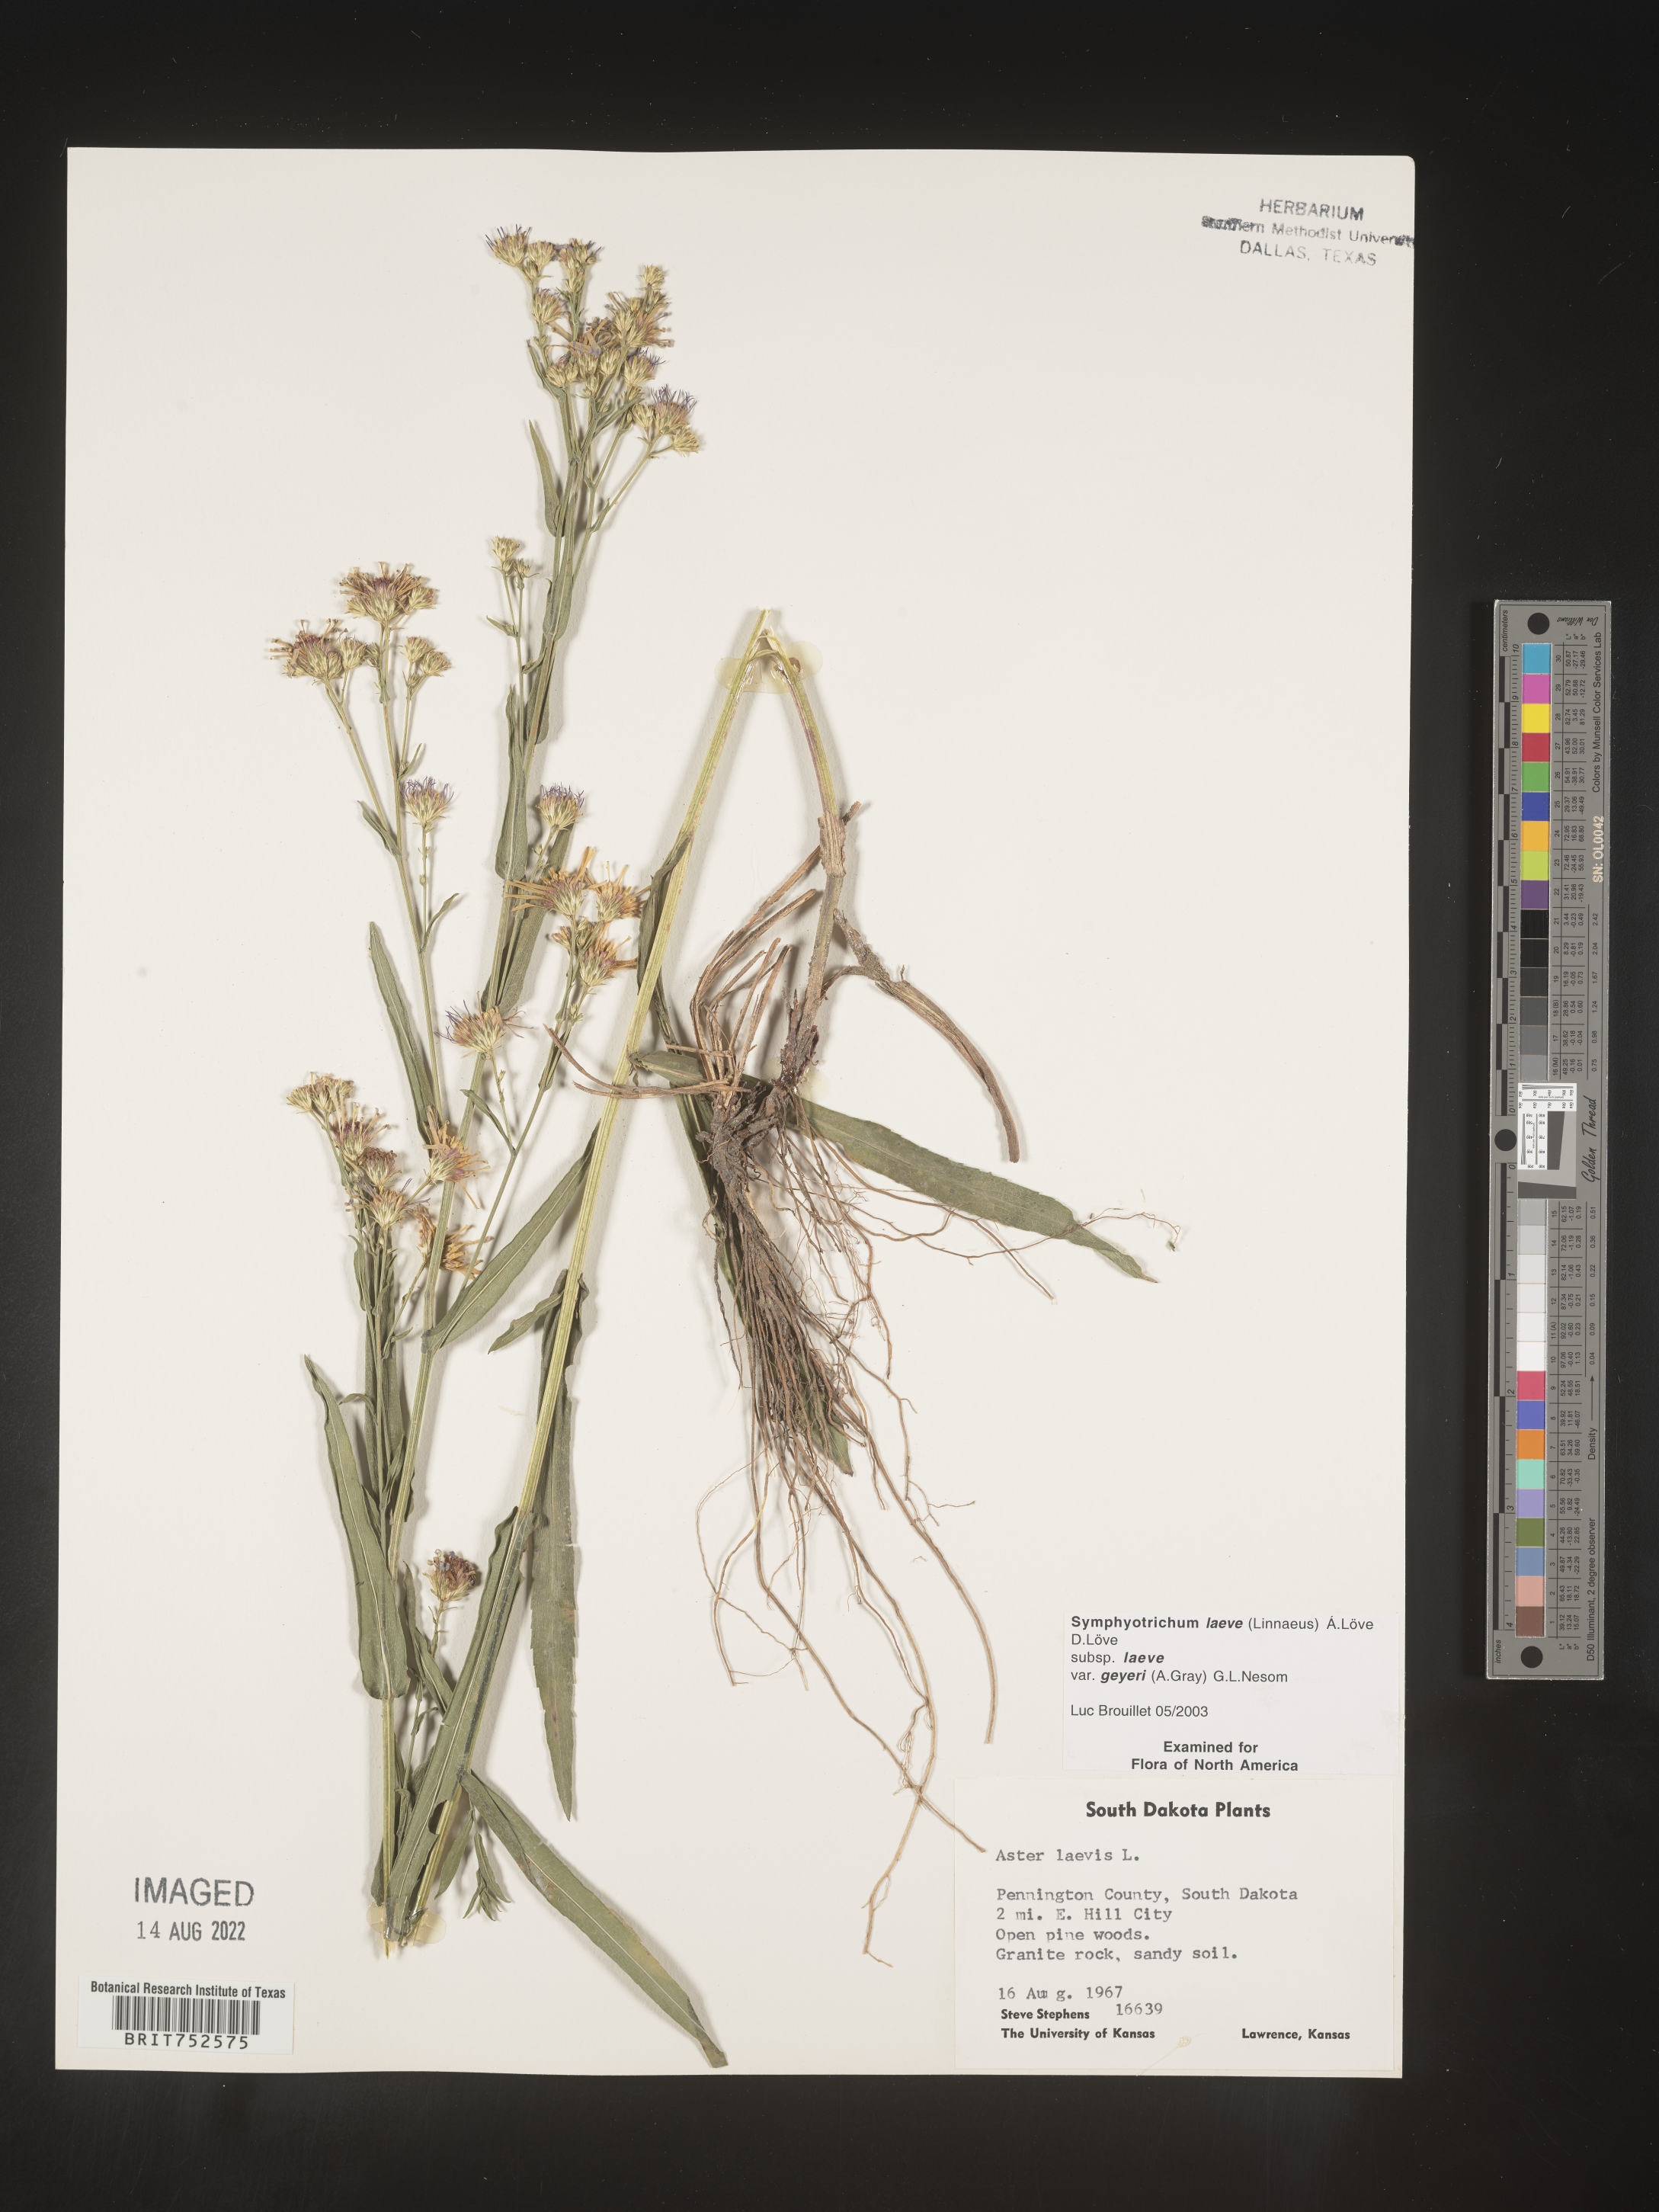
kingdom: Plantae
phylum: Tracheophyta
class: Magnoliopsida
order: Asterales
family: Asteraceae
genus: Symphyotrichum
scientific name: Symphyotrichum laeve
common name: Glaucous aster
